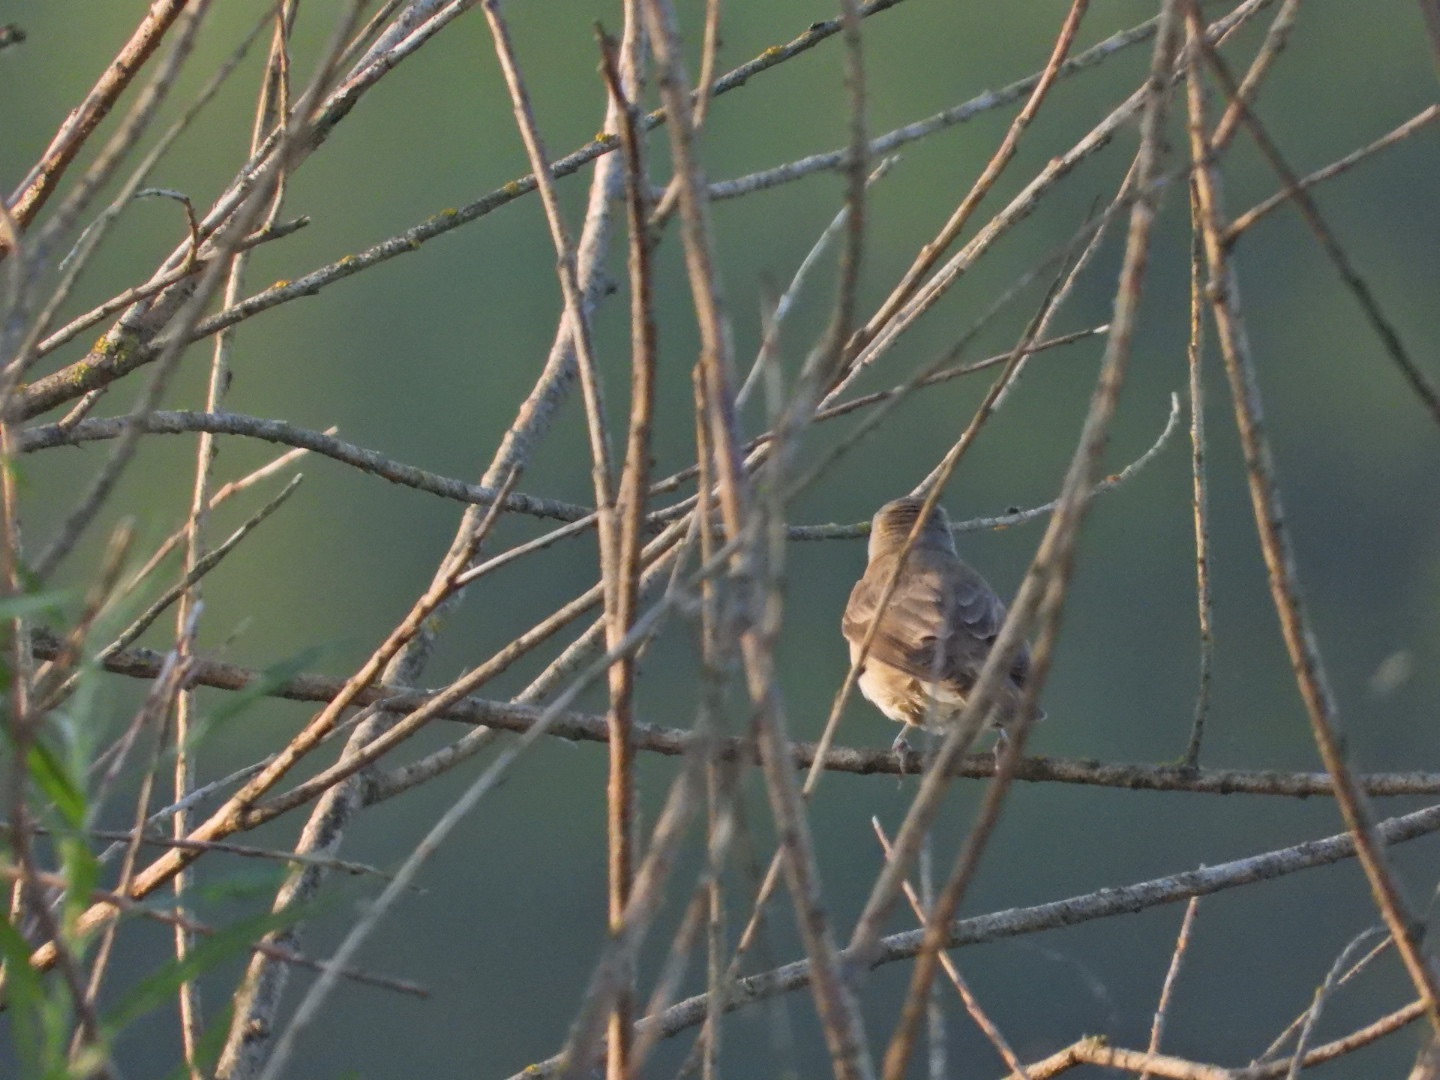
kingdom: Animalia
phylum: Chordata
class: Aves
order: Passeriformes
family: Sylviidae
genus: Sylvia
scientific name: Sylvia borin
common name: Havesanger
